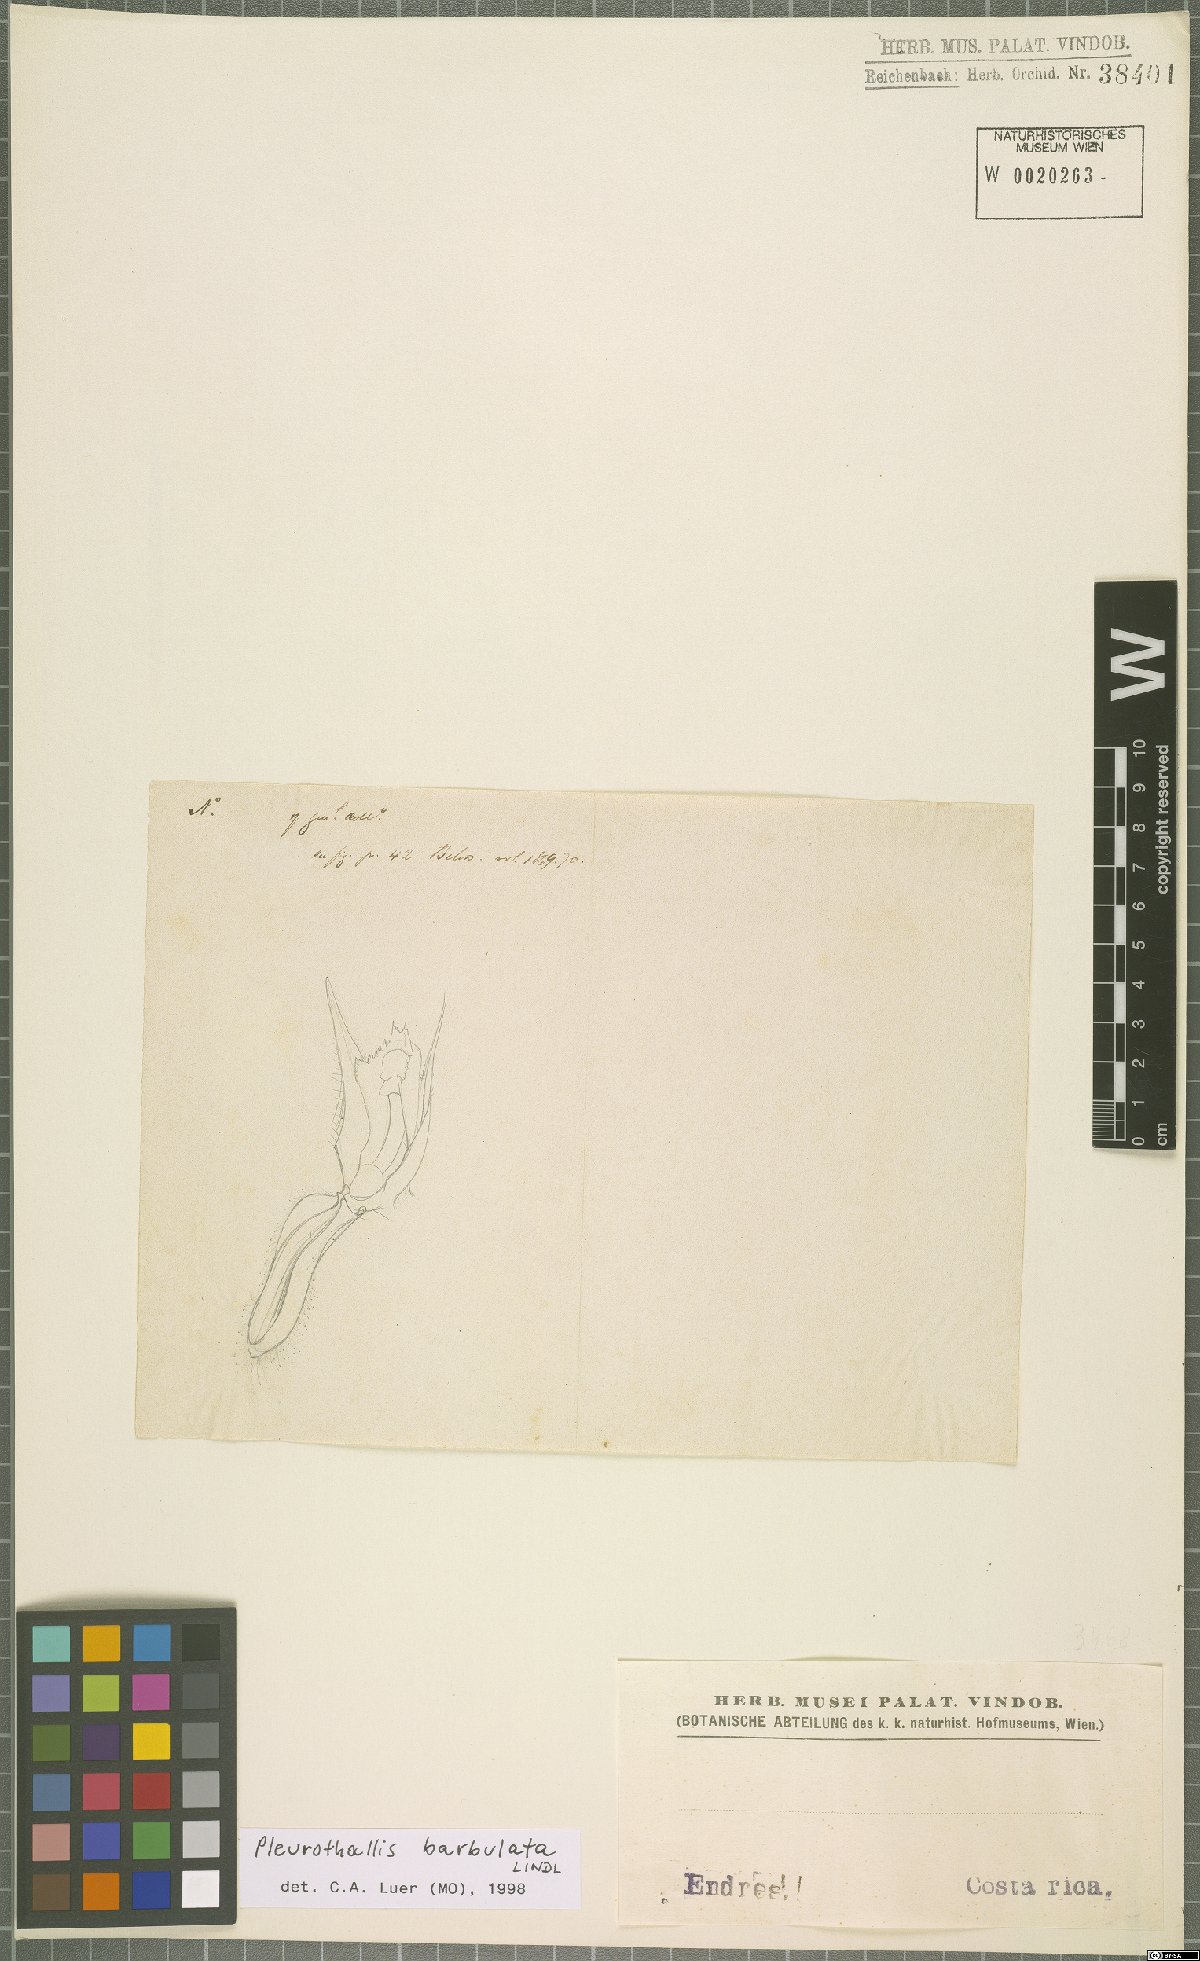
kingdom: Plantae
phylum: Tracheophyta
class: Liliopsida
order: Asparagales
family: Orchidaceae
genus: Anathallis
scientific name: Anathallis barbulata
